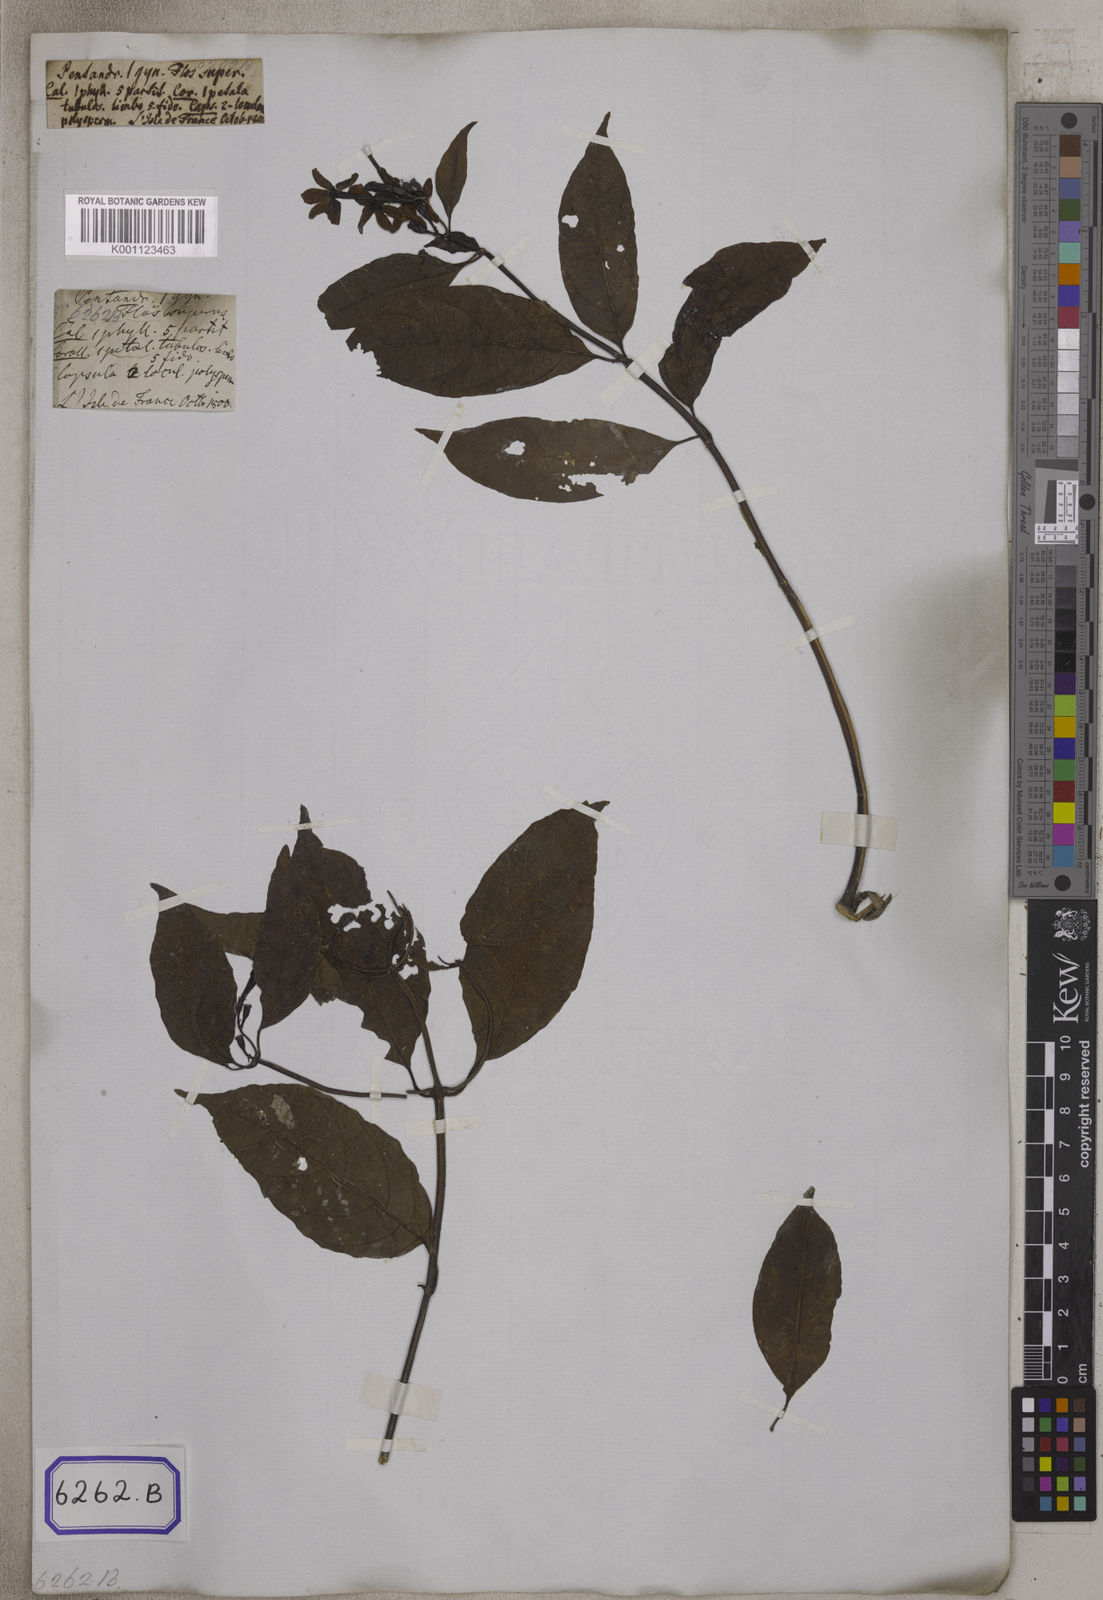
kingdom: Plantae
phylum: Tracheophyta
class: Magnoliopsida
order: Gentianales
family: Rubiaceae
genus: Mussaenda
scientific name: Mussaenda arcuata
